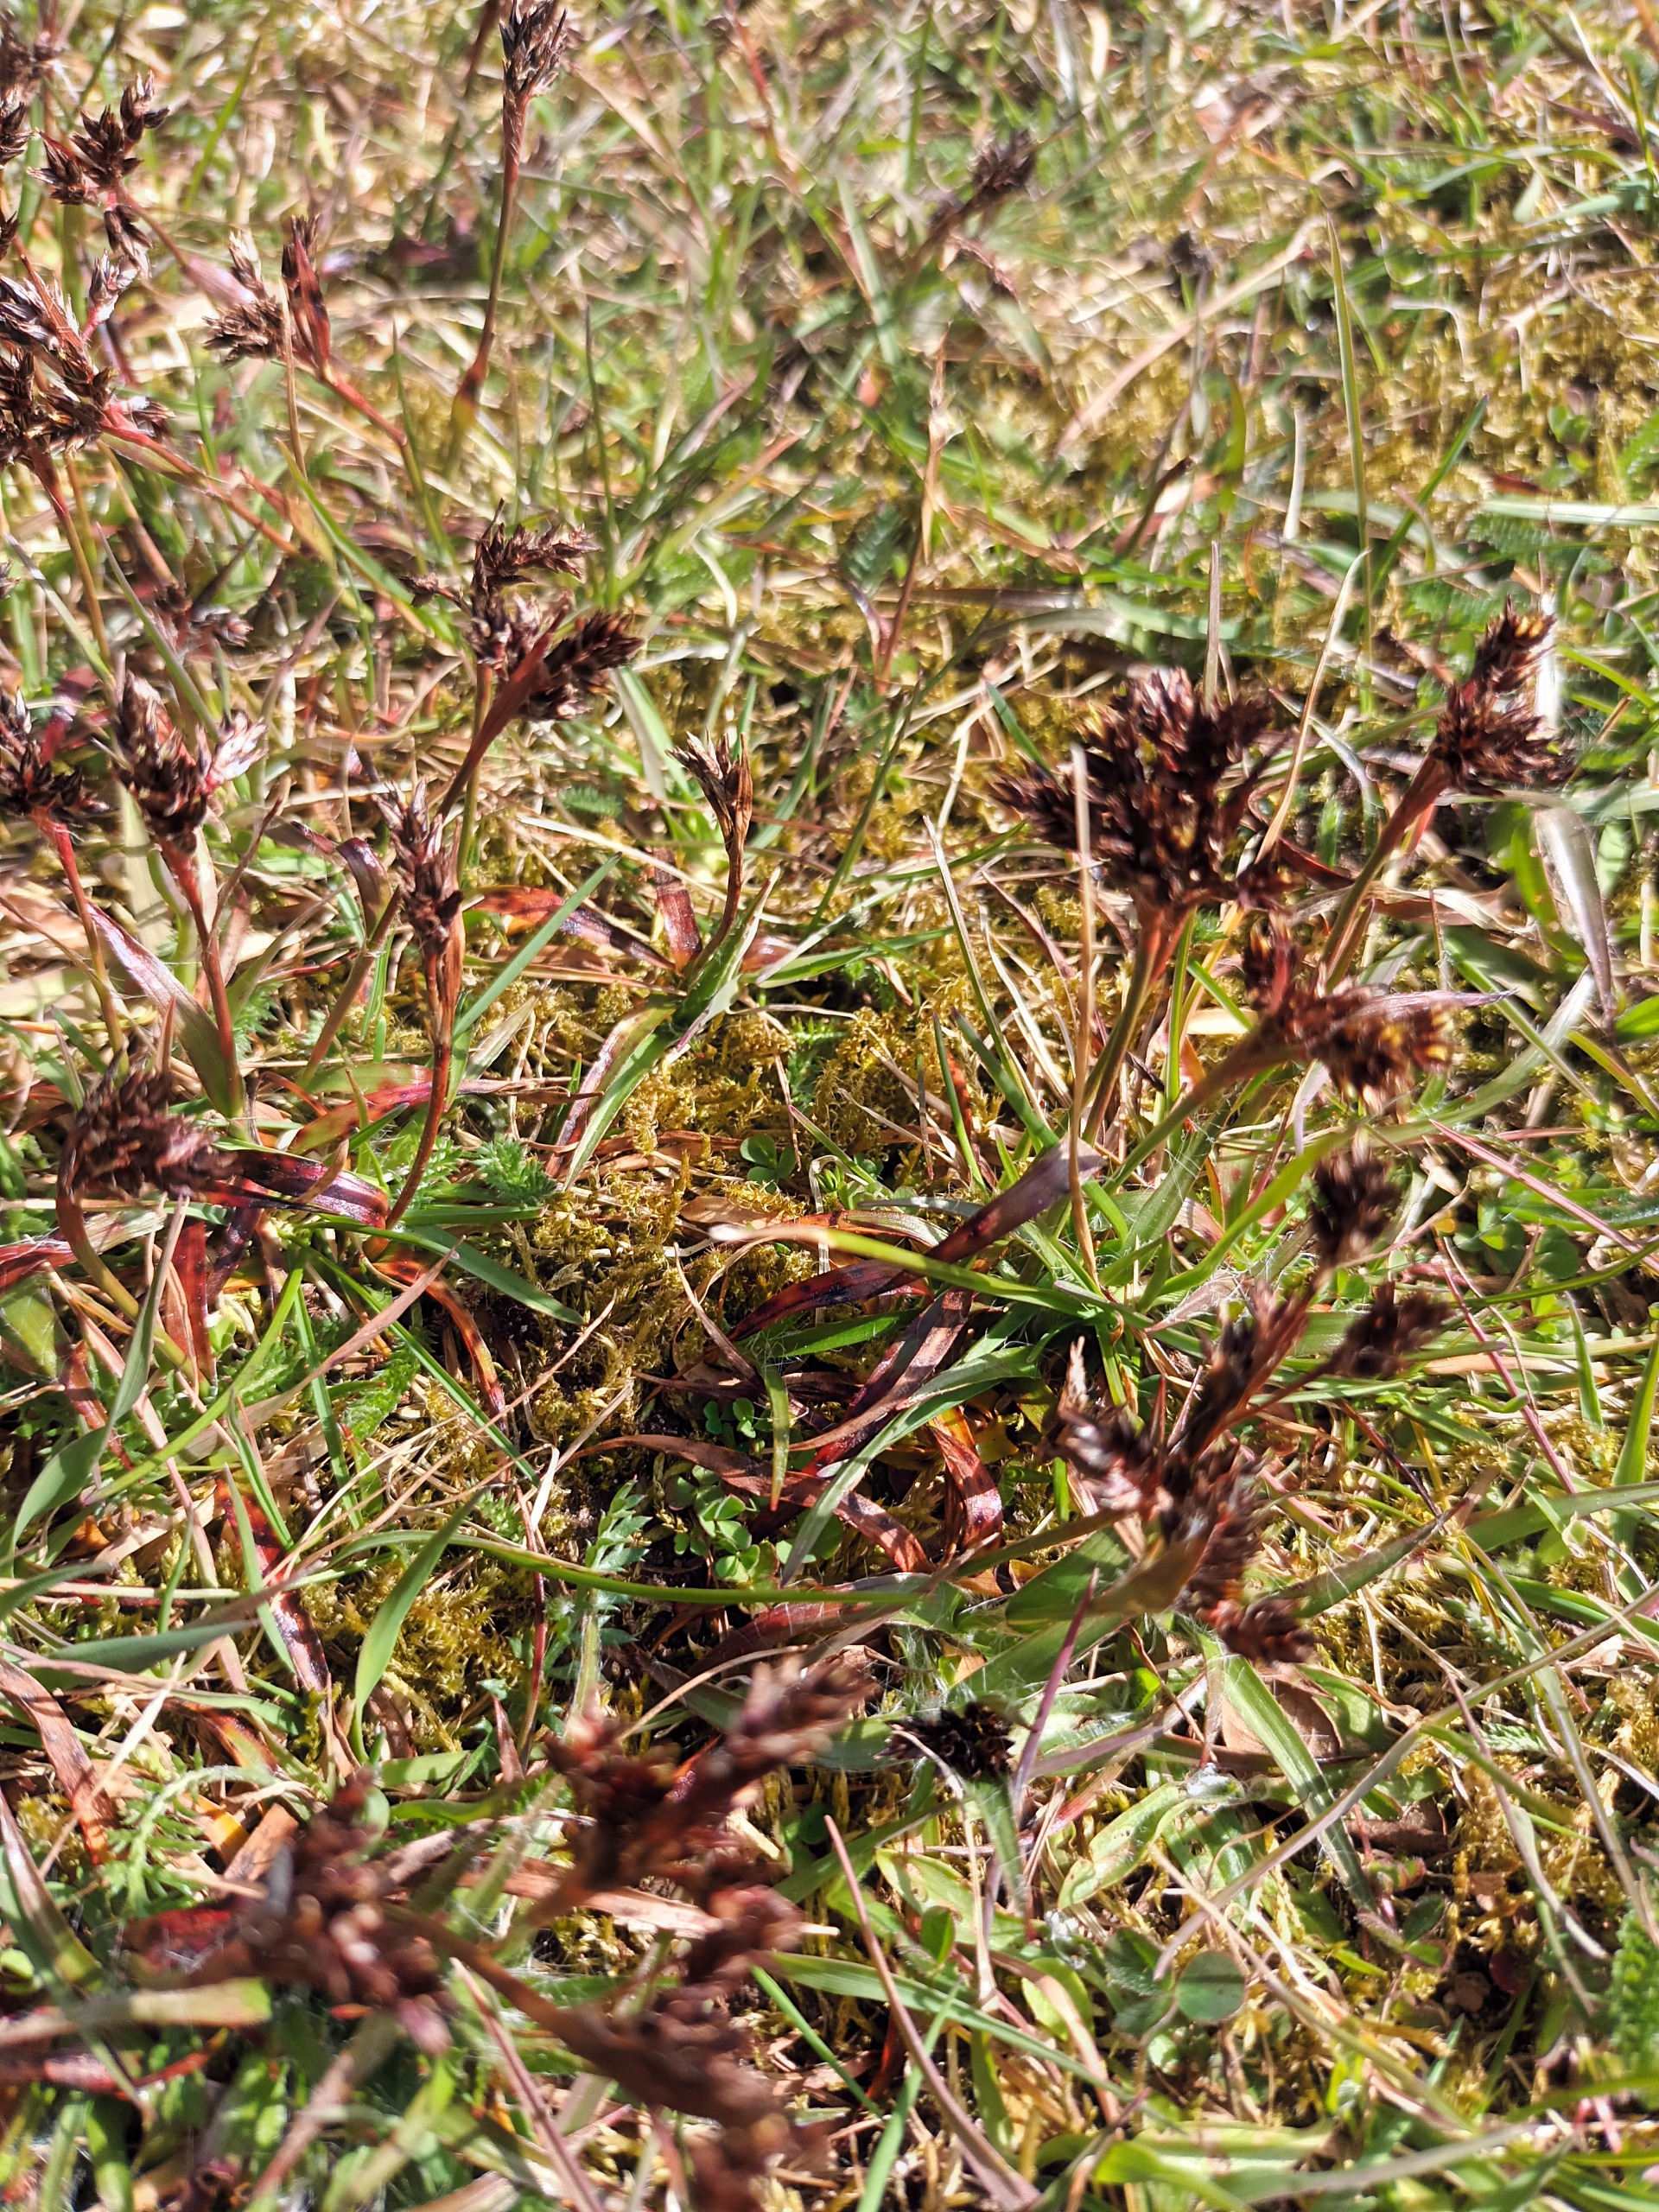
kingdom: Plantae
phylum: Tracheophyta
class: Liliopsida
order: Poales
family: Juncaceae
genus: Luzula
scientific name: Luzula campestris
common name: Mark-frytle
